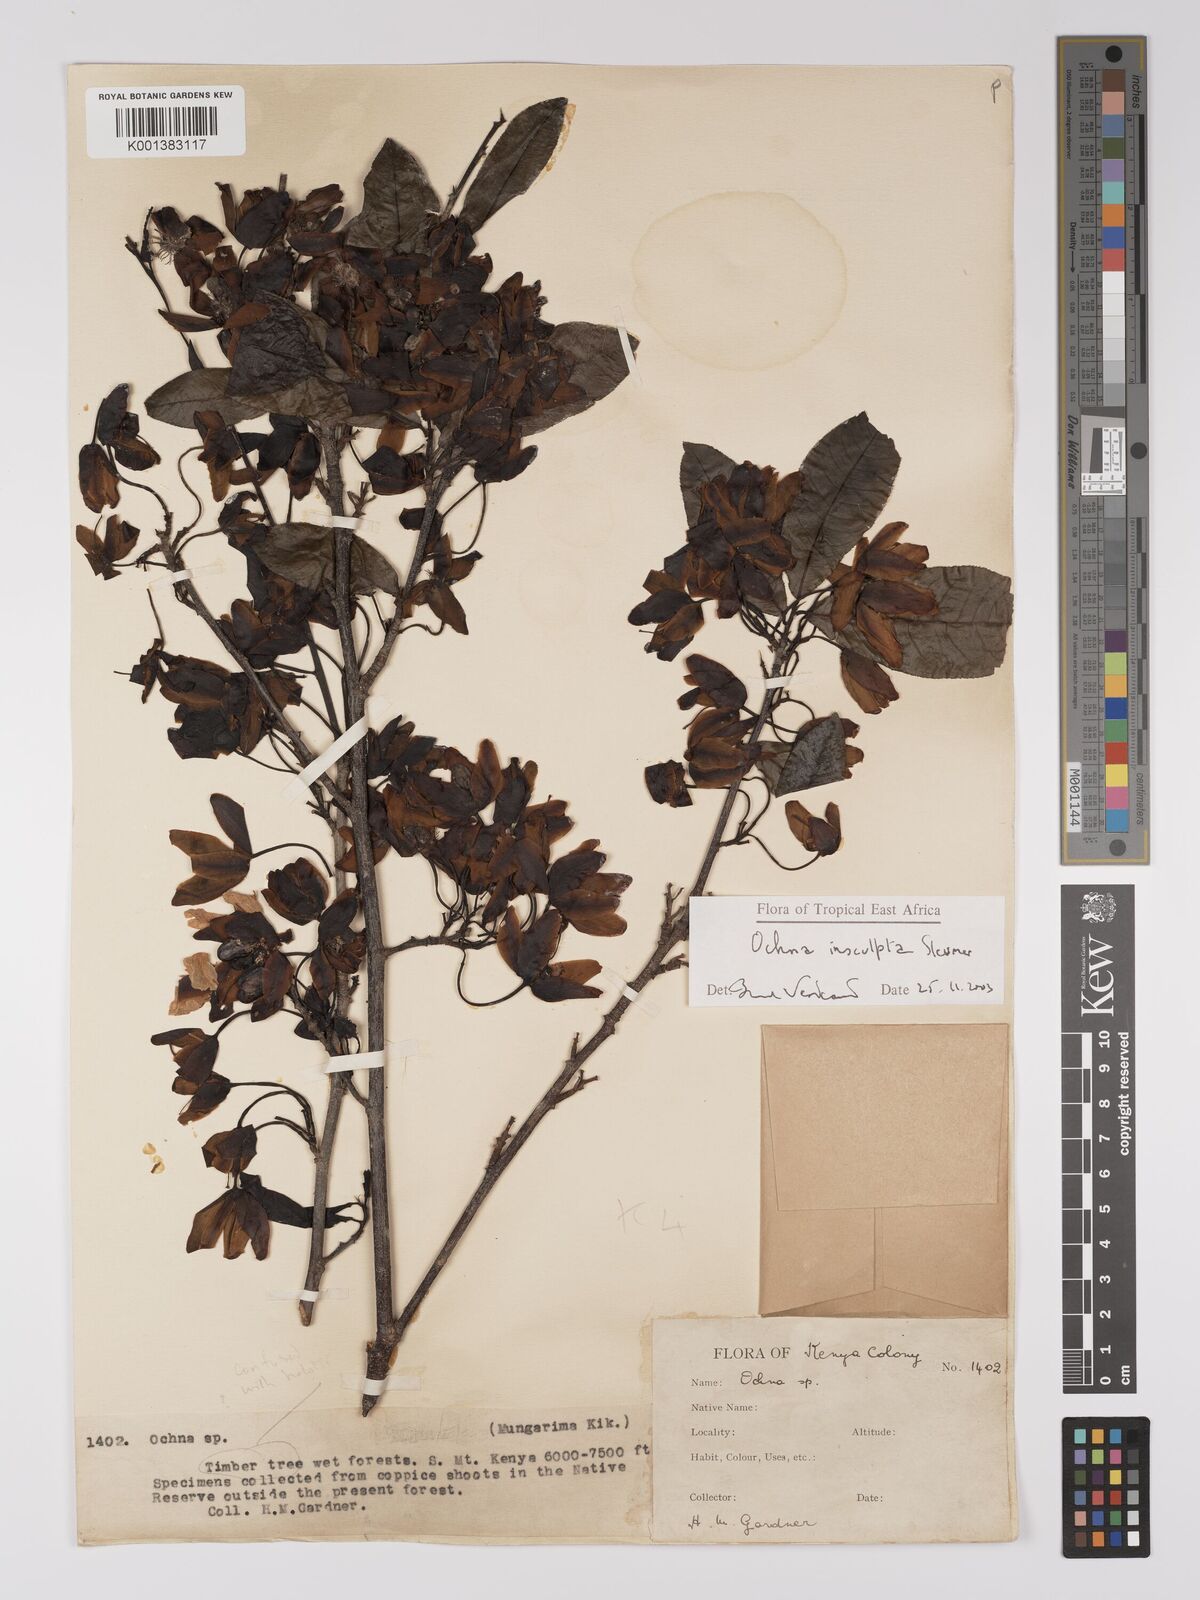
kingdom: Plantae
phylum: Tracheophyta
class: Magnoliopsida
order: Malpighiales
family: Ochnaceae
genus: Ochna
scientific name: Ochna insculpta
